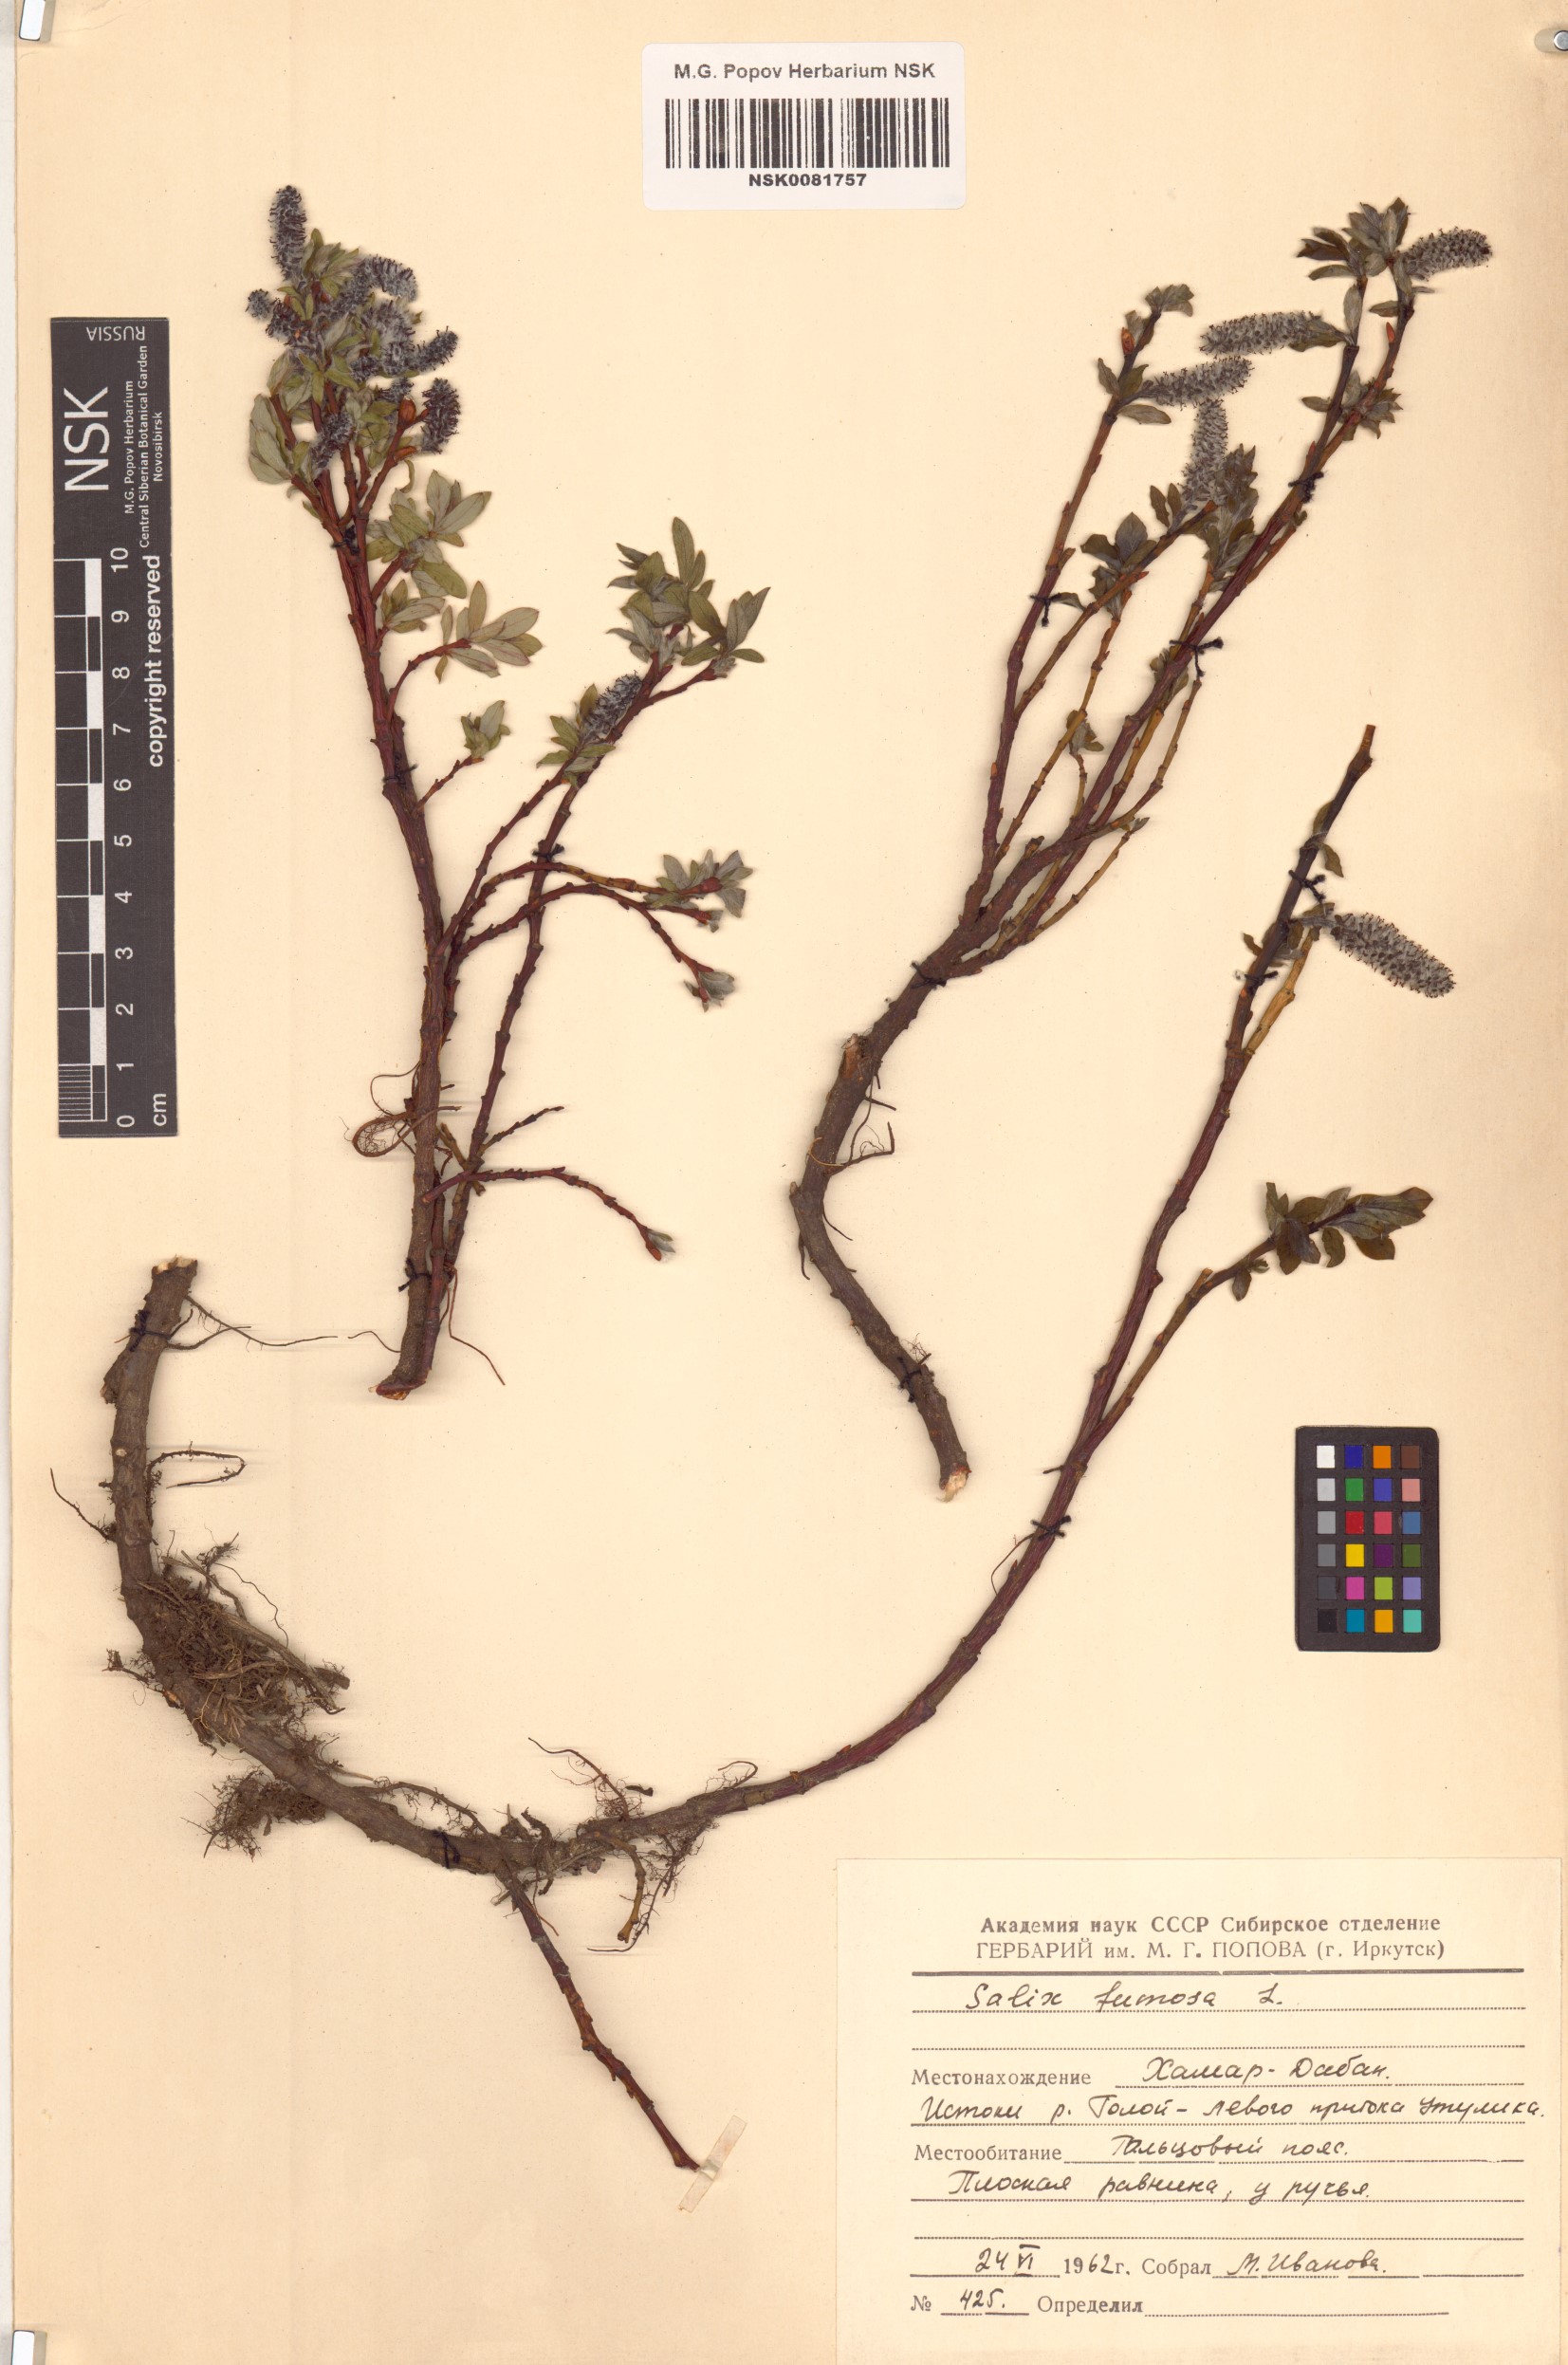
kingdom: Plantae
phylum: Tracheophyta
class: Magnoliopsida
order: Malpighiales
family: Salicaceae
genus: Salix
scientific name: Salix saxatilis
